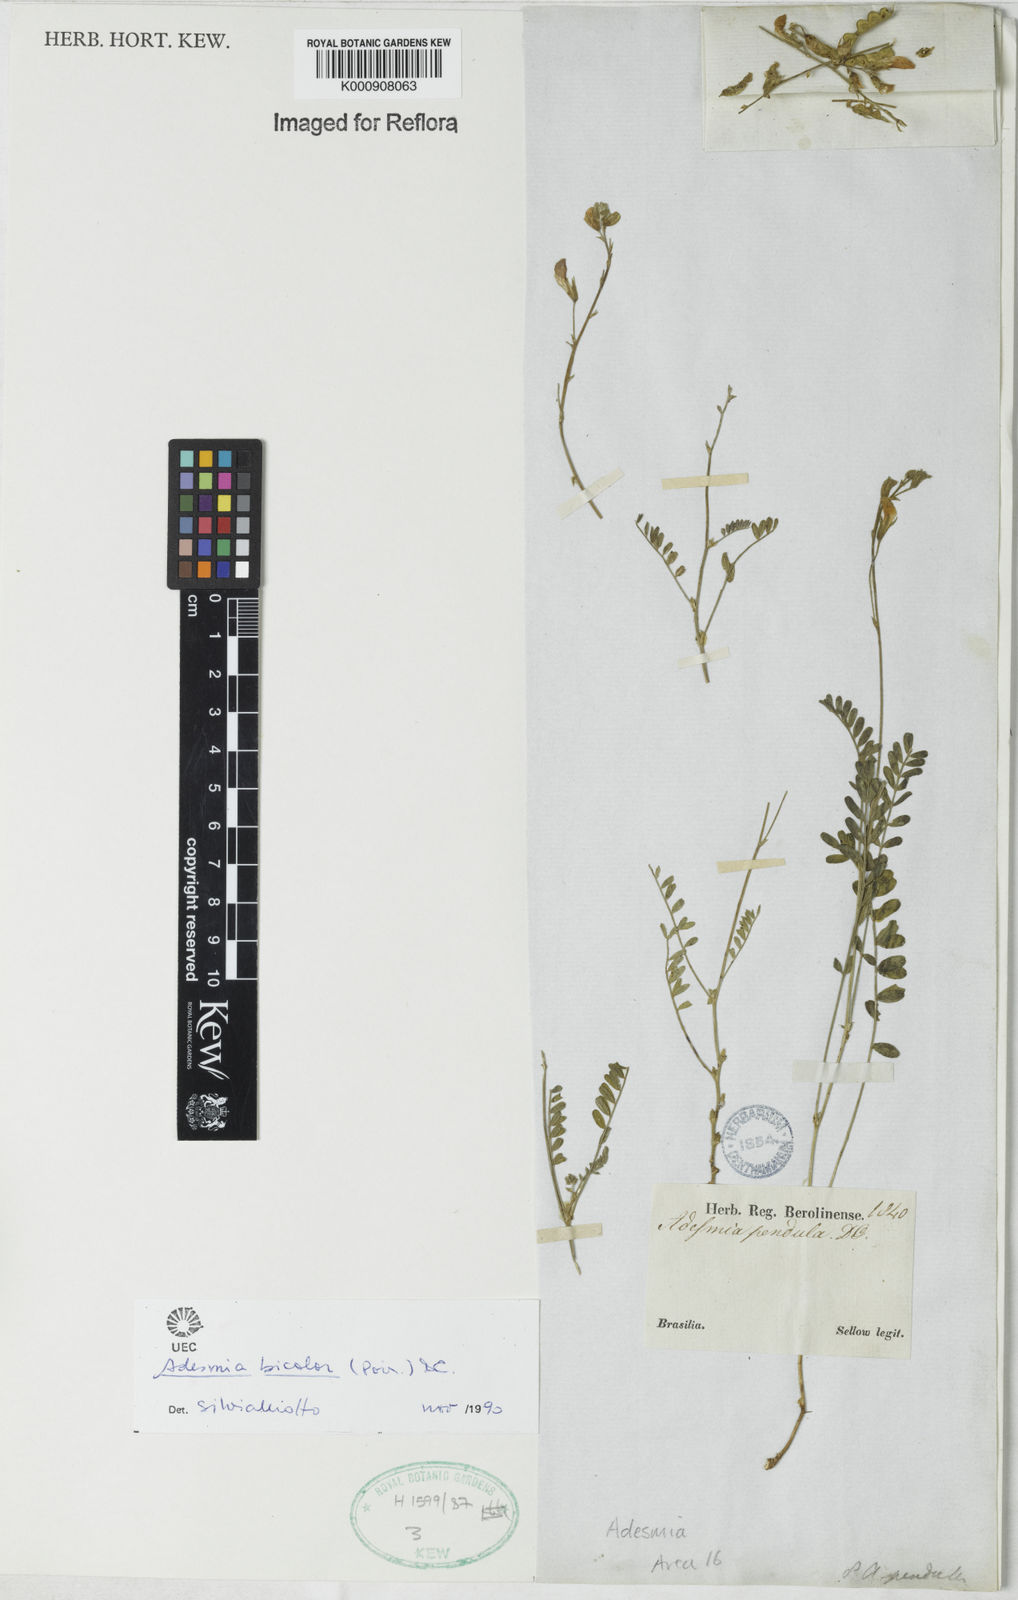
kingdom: Plantae
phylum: Tracheophyta
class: Magnoliopsida
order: Fabales
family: Fabaceae
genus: Adesmia
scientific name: Adesmia bicolora
